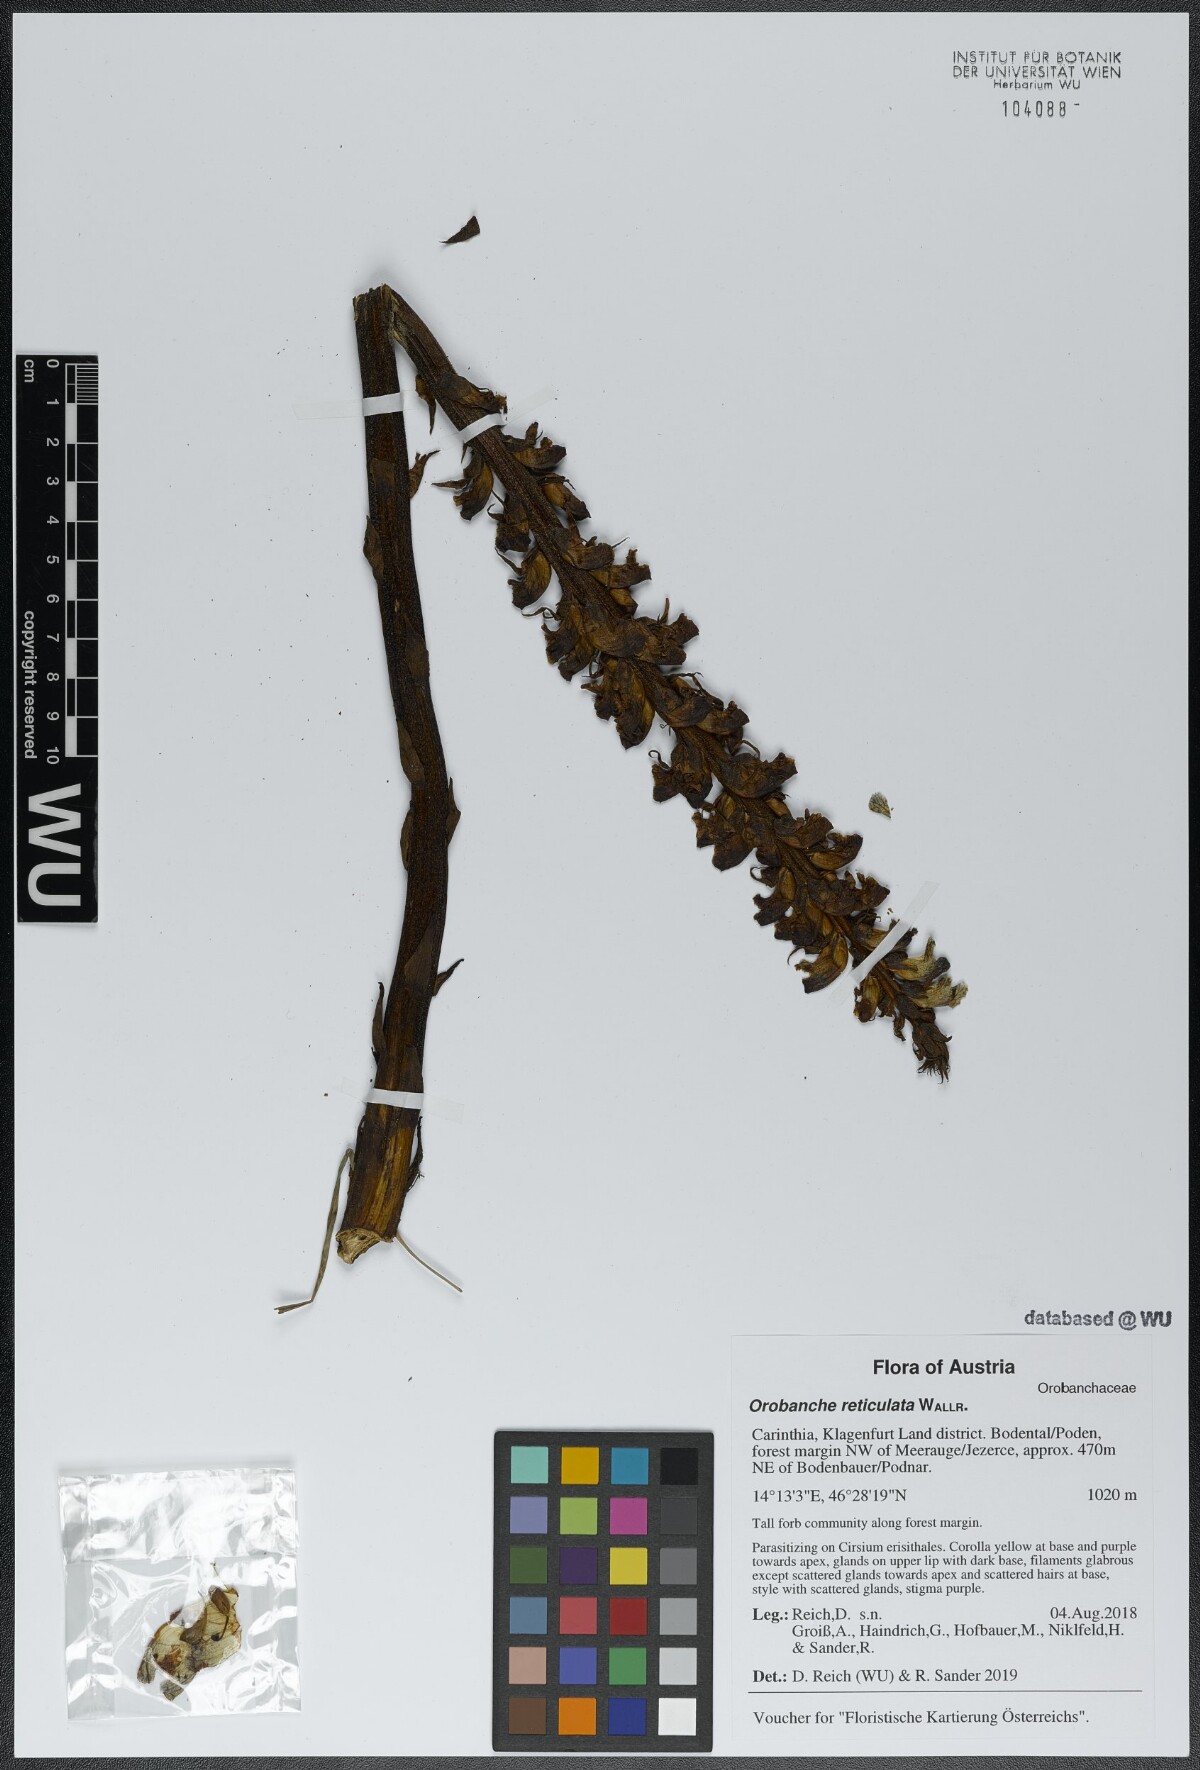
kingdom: Plantae
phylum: Tracheophyta
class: Magnoliopsida
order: Lamiales
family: Orobanchaceae
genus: Orobanche
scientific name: Orobanche reticulata
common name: Thistle broomrape
